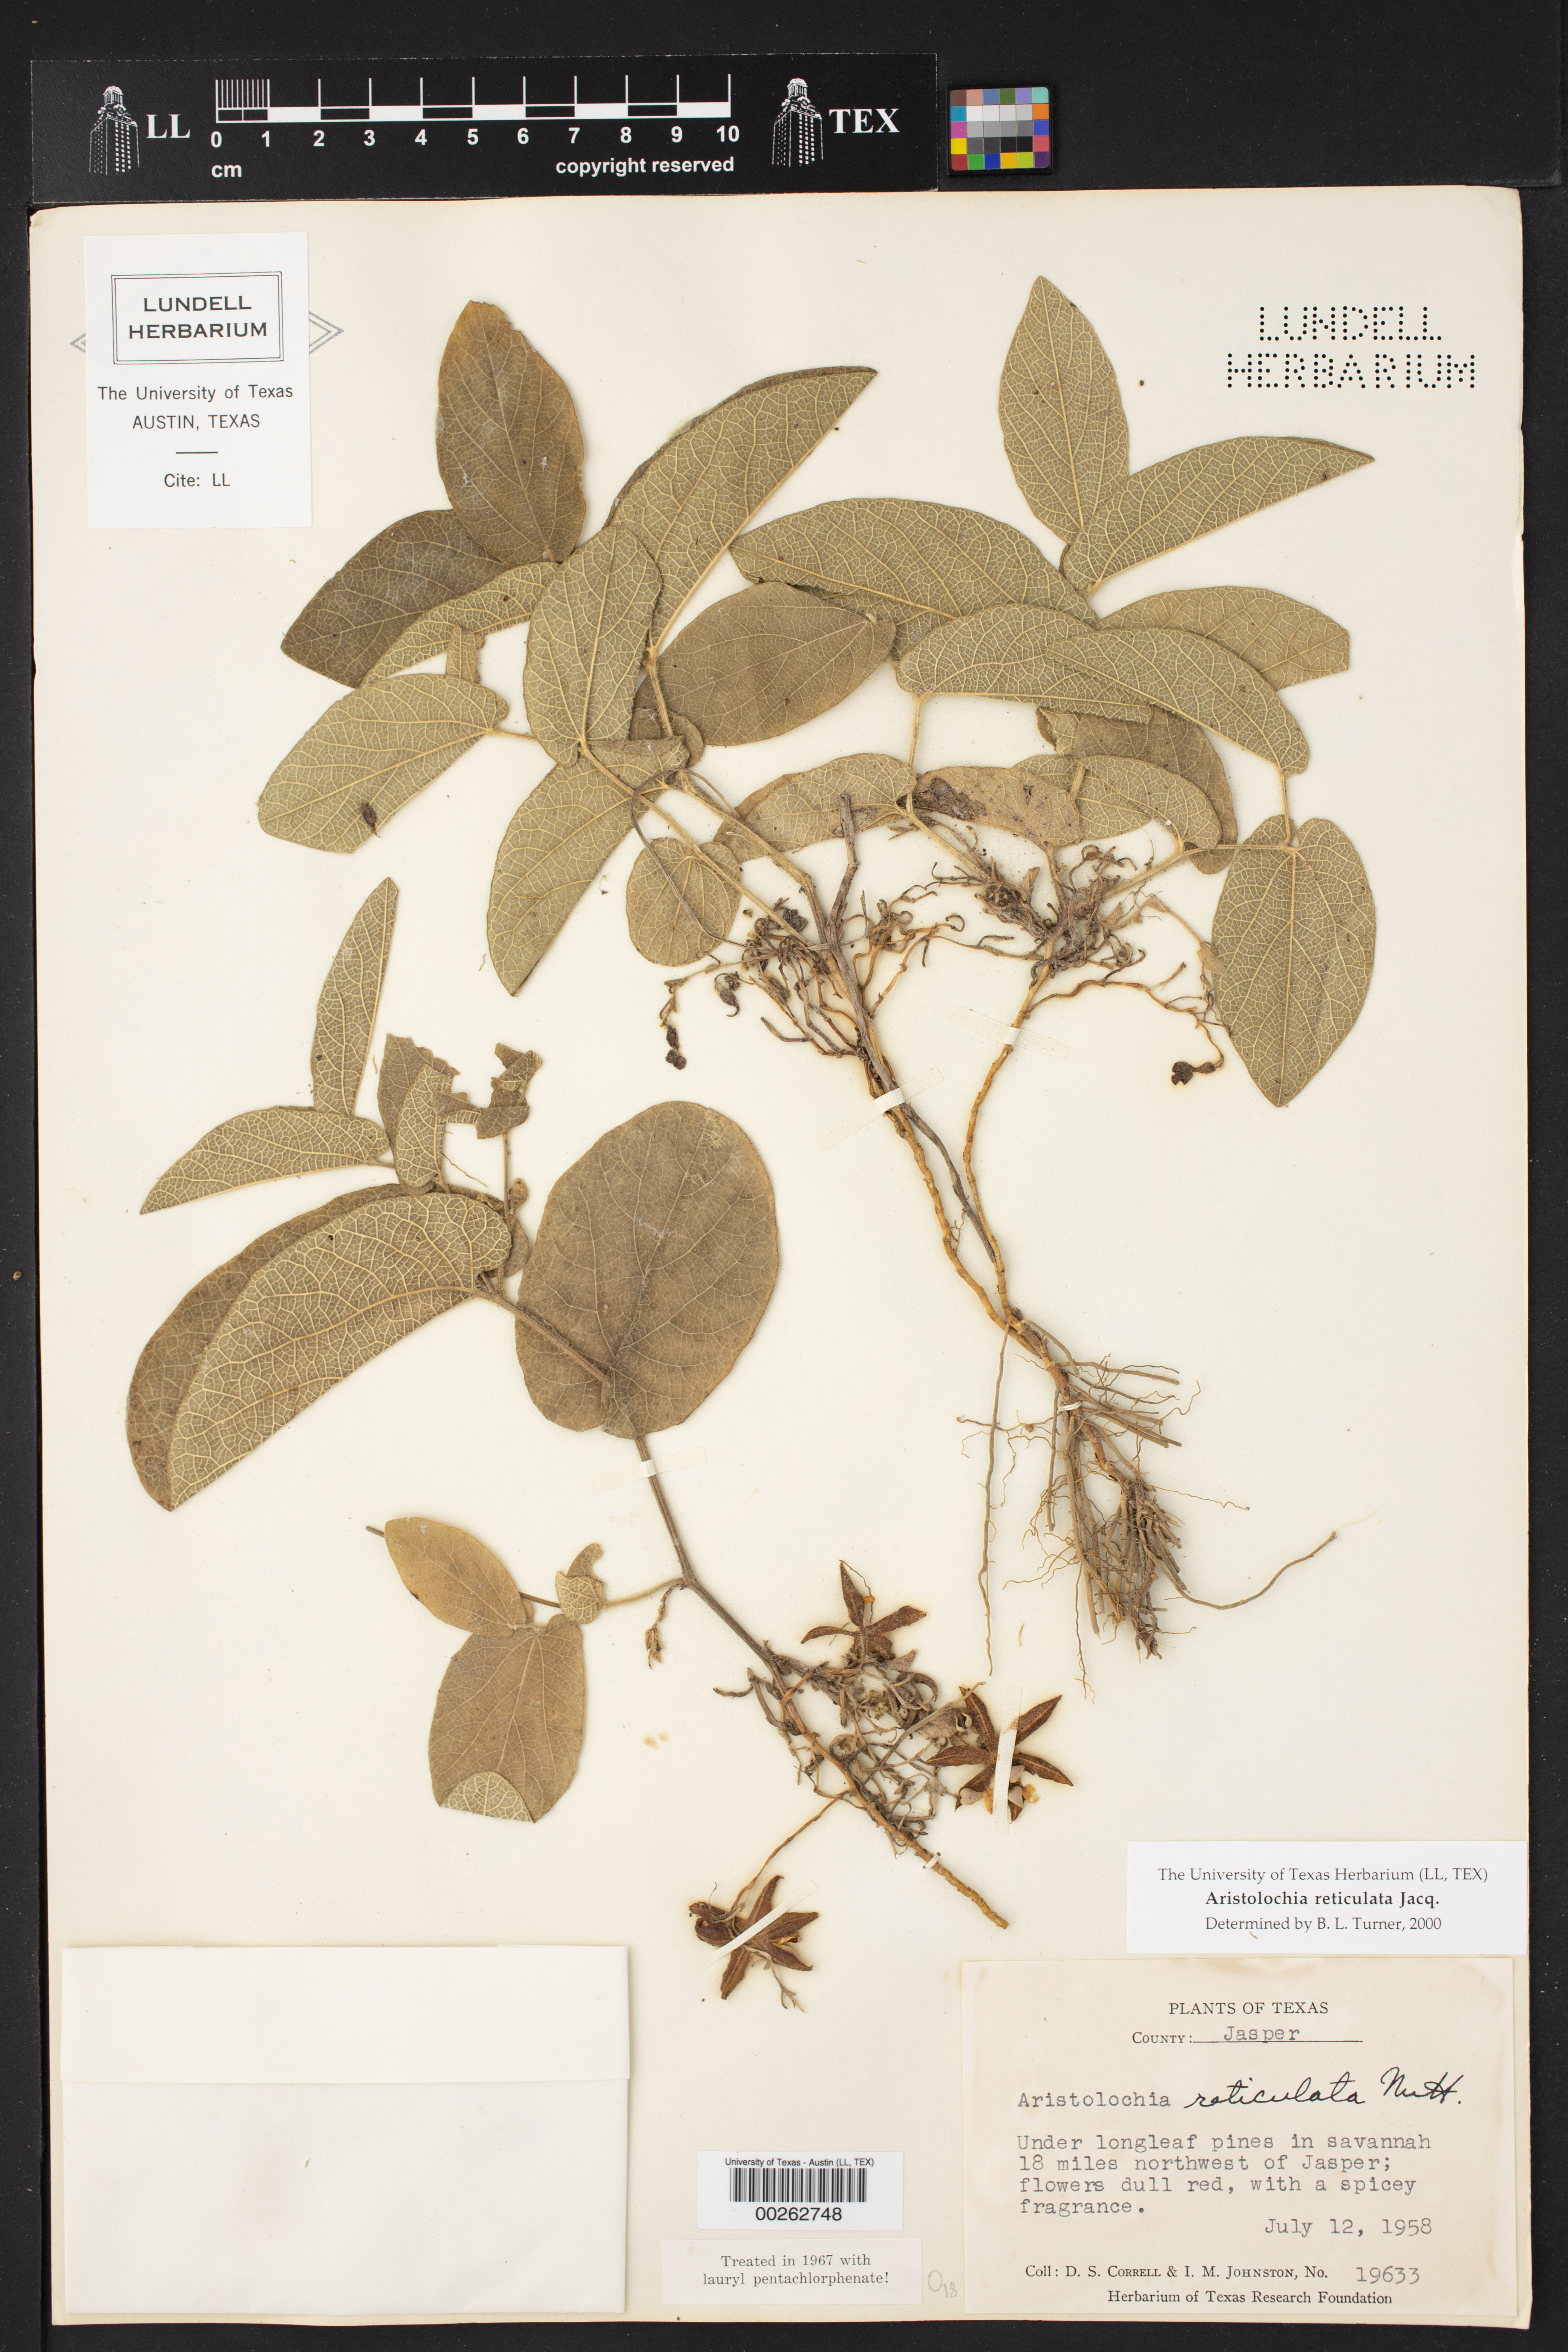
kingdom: Plantae
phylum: Tracheophyta
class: Magnoliopsida
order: Piperales
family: Aristolochiaceae
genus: Aristolochia
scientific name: Aristolochia
